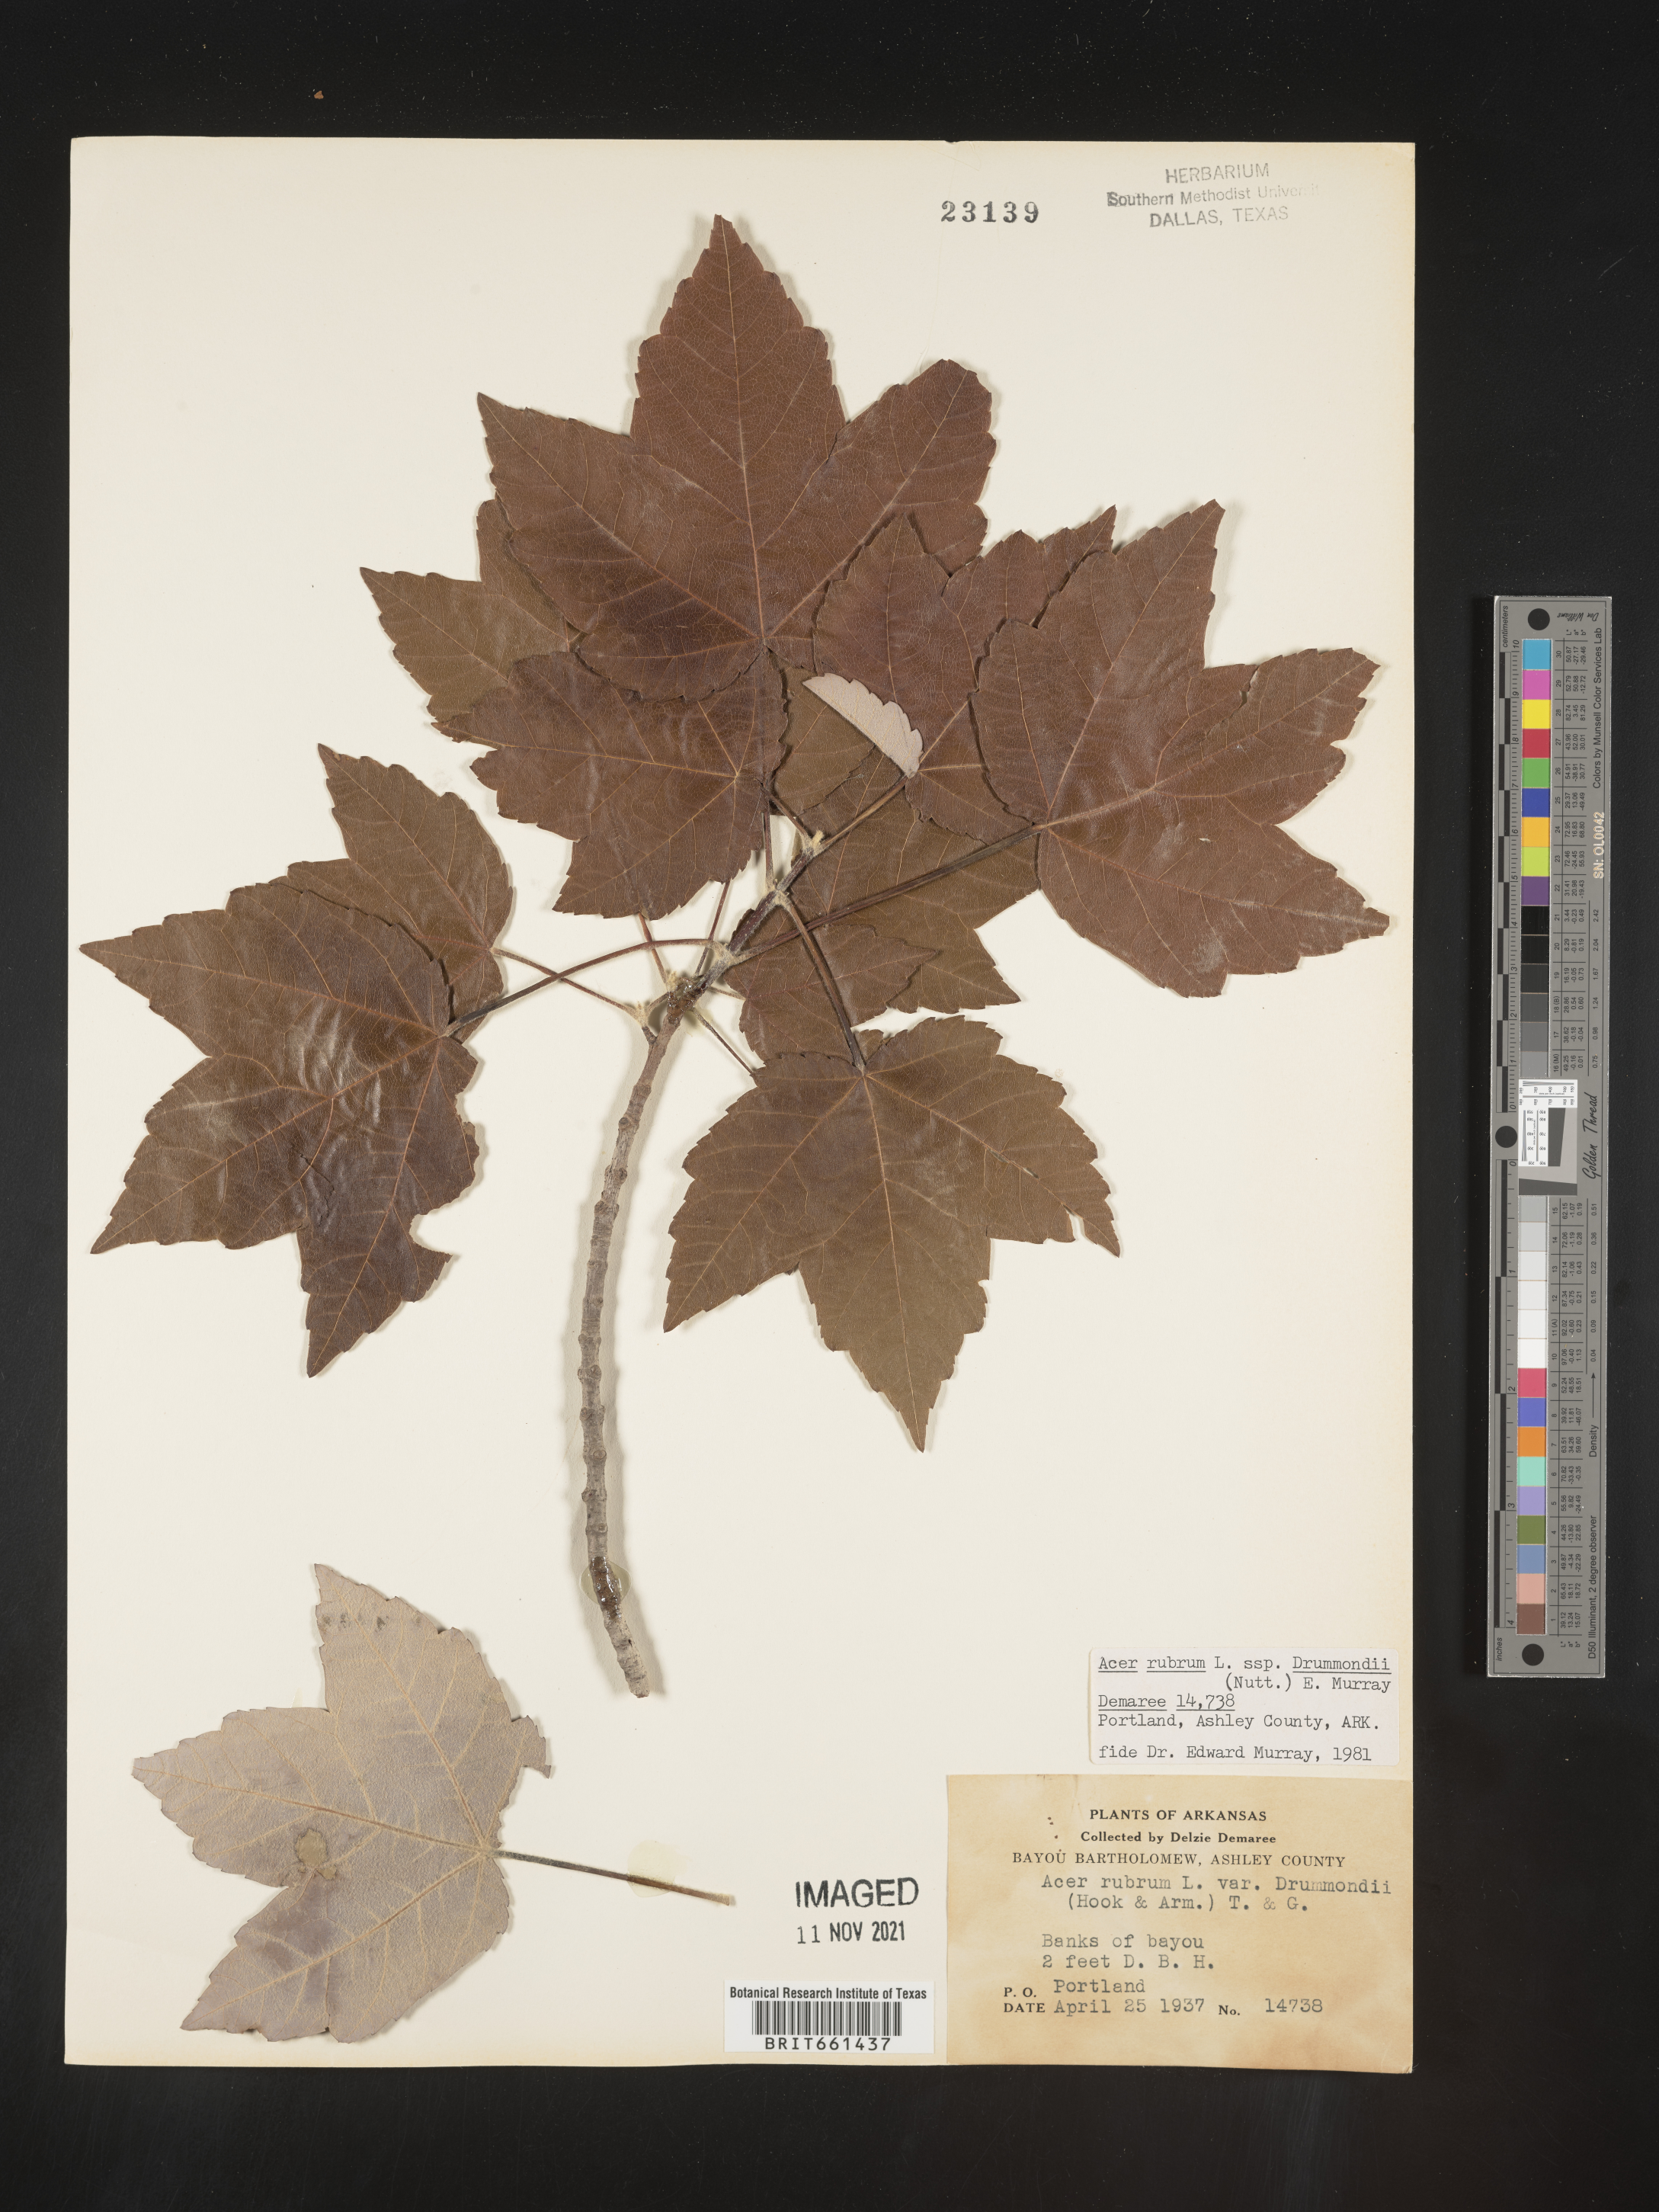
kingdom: Plantae
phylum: Tracheophyta
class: Magnoliopsida
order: Sapindales
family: Sapindaceae
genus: Acer
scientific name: Acer rubrum
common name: Red maple
